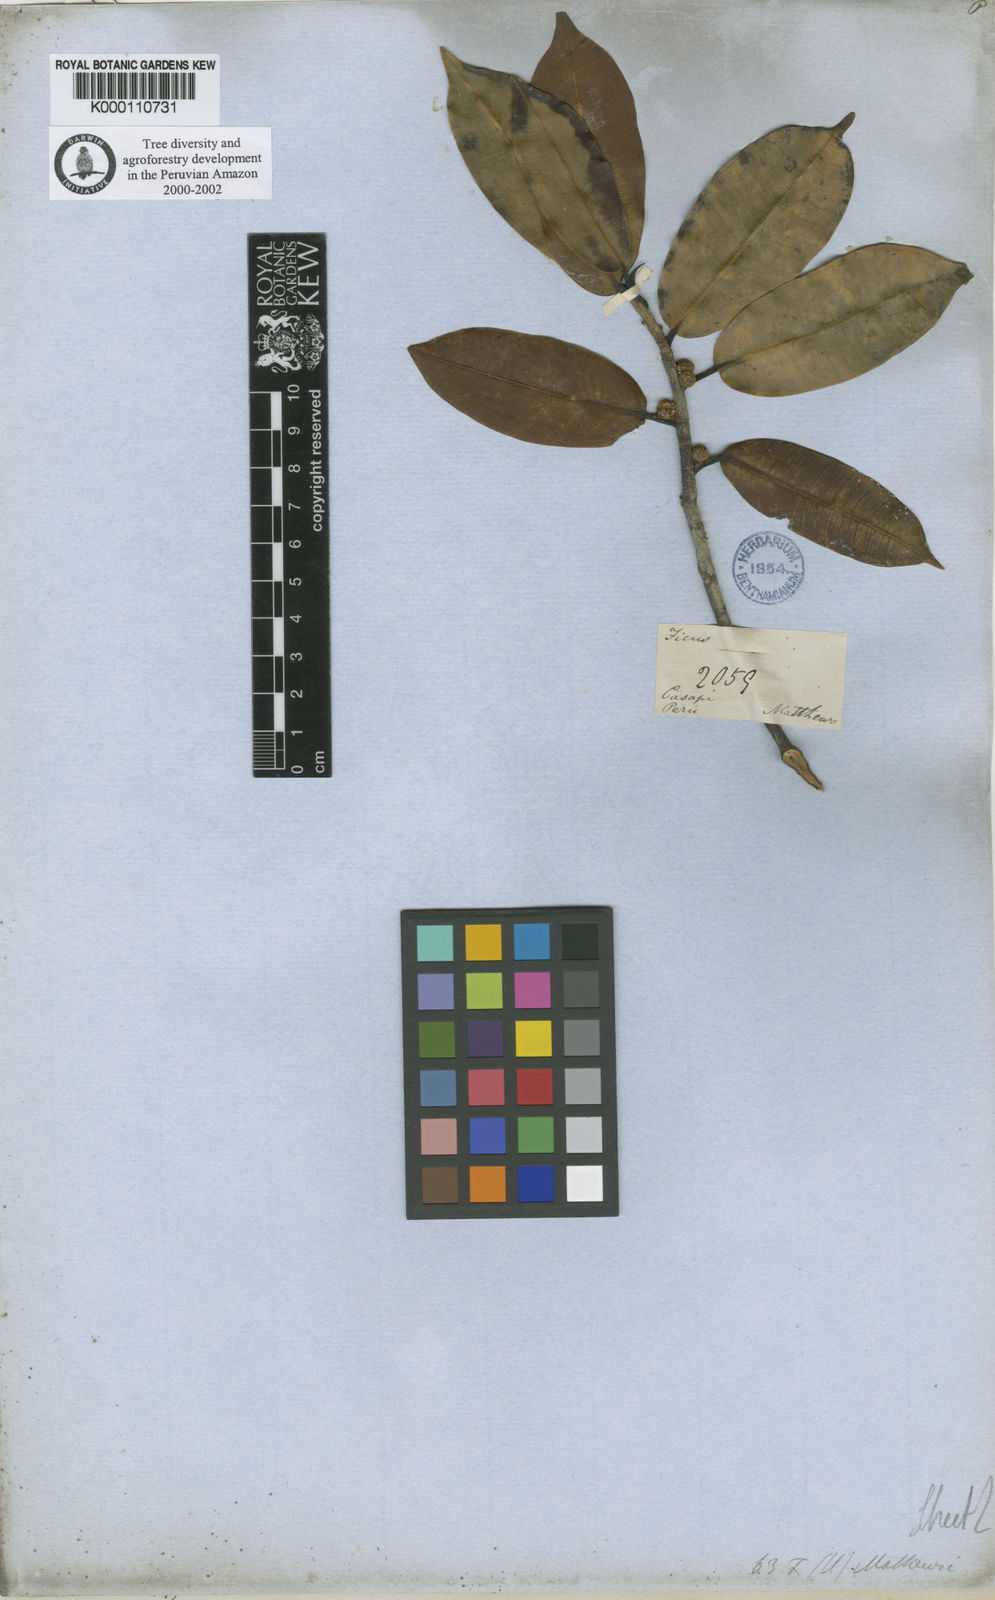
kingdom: Plantae
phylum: Tracheophyta
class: Magnoliopsida
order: Rosales
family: Moraceae
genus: Ficus
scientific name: Ficus mathewsii
